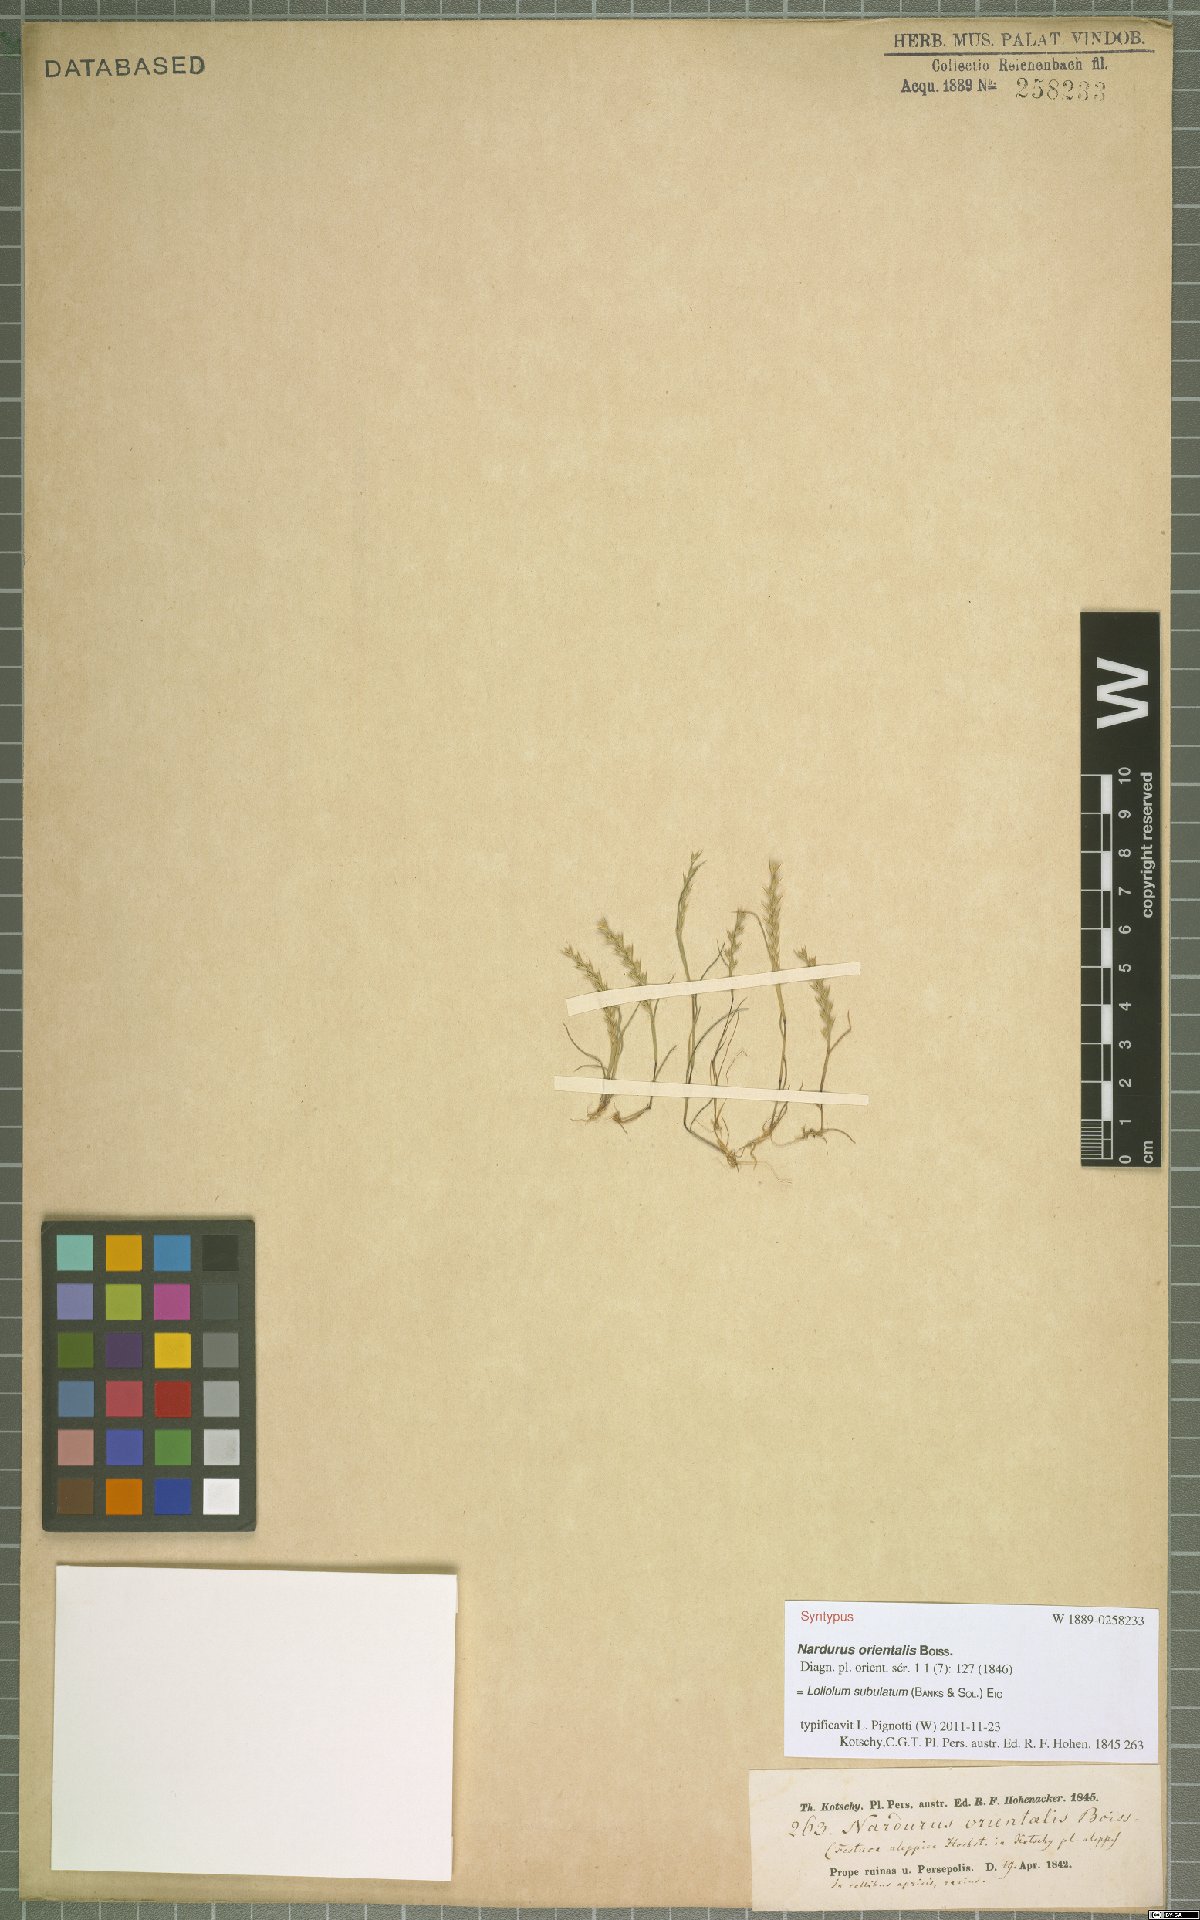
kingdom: Plantae
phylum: Tracheophyta
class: Liliopsida
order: Poales
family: Poaceae
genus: Festuca
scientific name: Festuca orientalis
